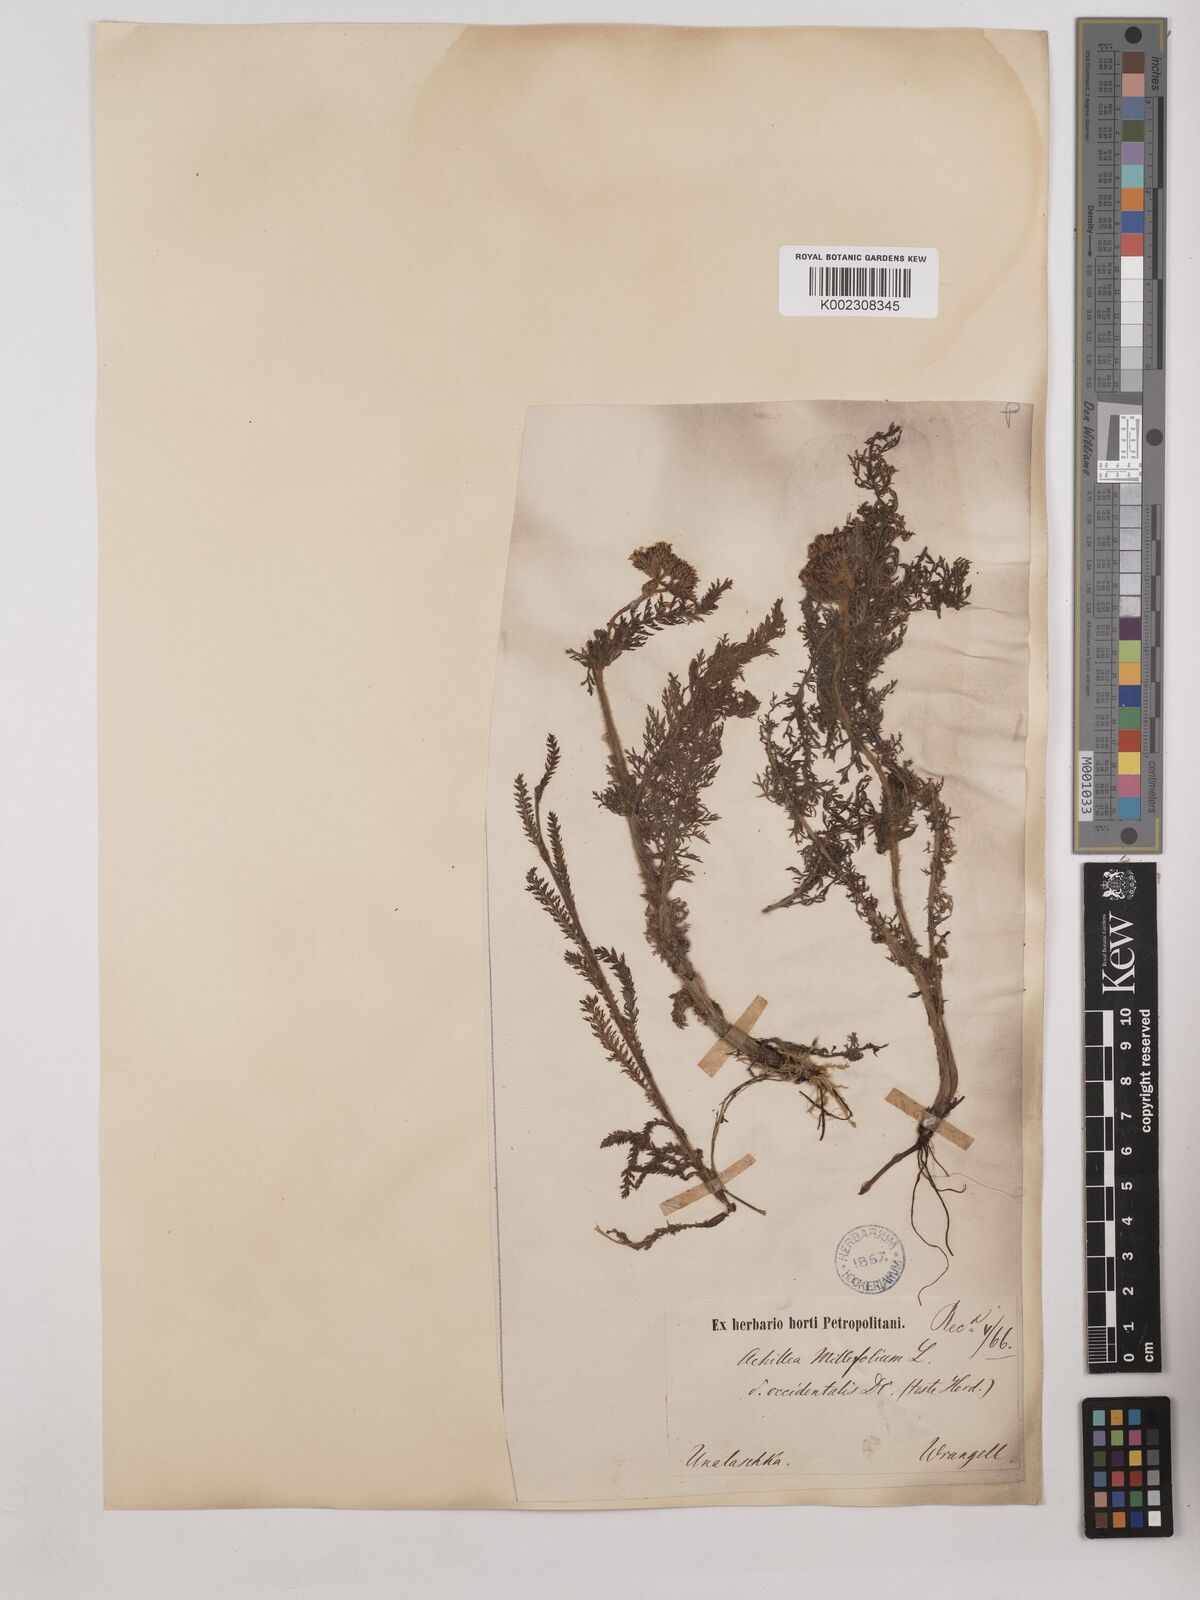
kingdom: Plantae
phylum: Tracheophyta
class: Magnoliopsida
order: Asterales
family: Asteraceae
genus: Achillea
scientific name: Achillea millefolium
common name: Yarrow
